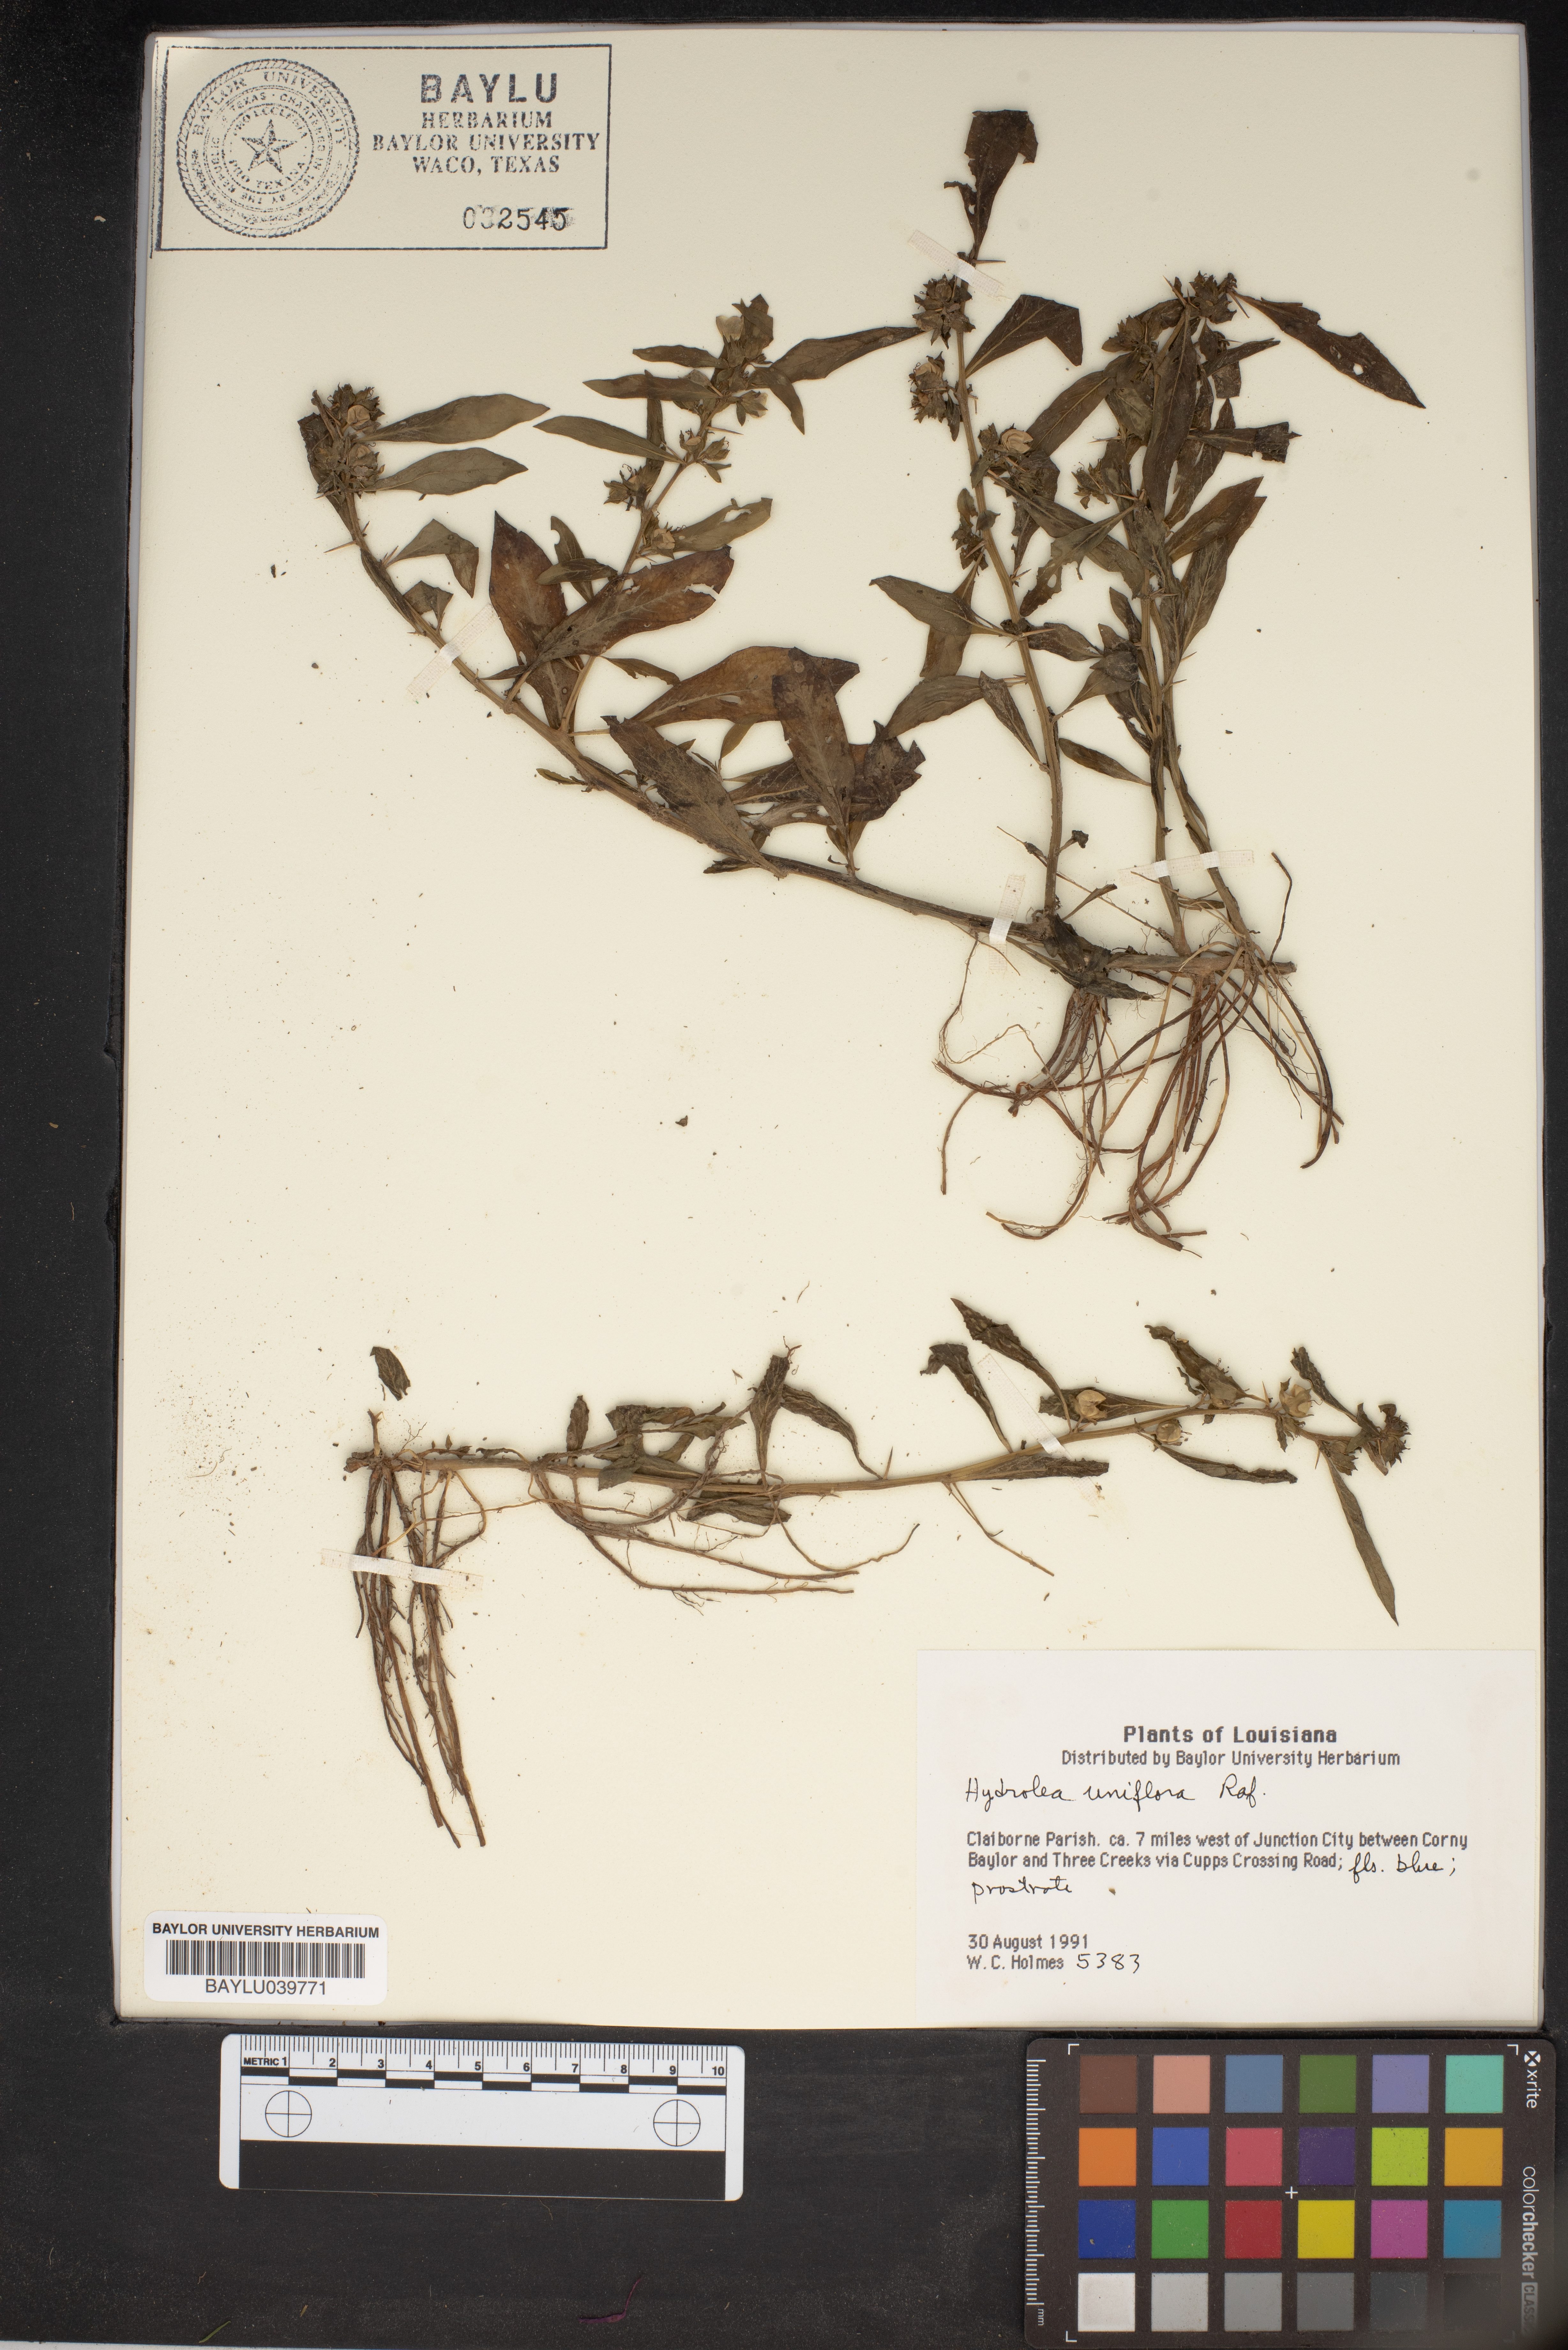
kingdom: Plantae
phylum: Tracheophyta
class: Magnoliopsida
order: Solanales
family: Hydroleaceae
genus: Hydrolea
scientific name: Hydrolea uniflora
